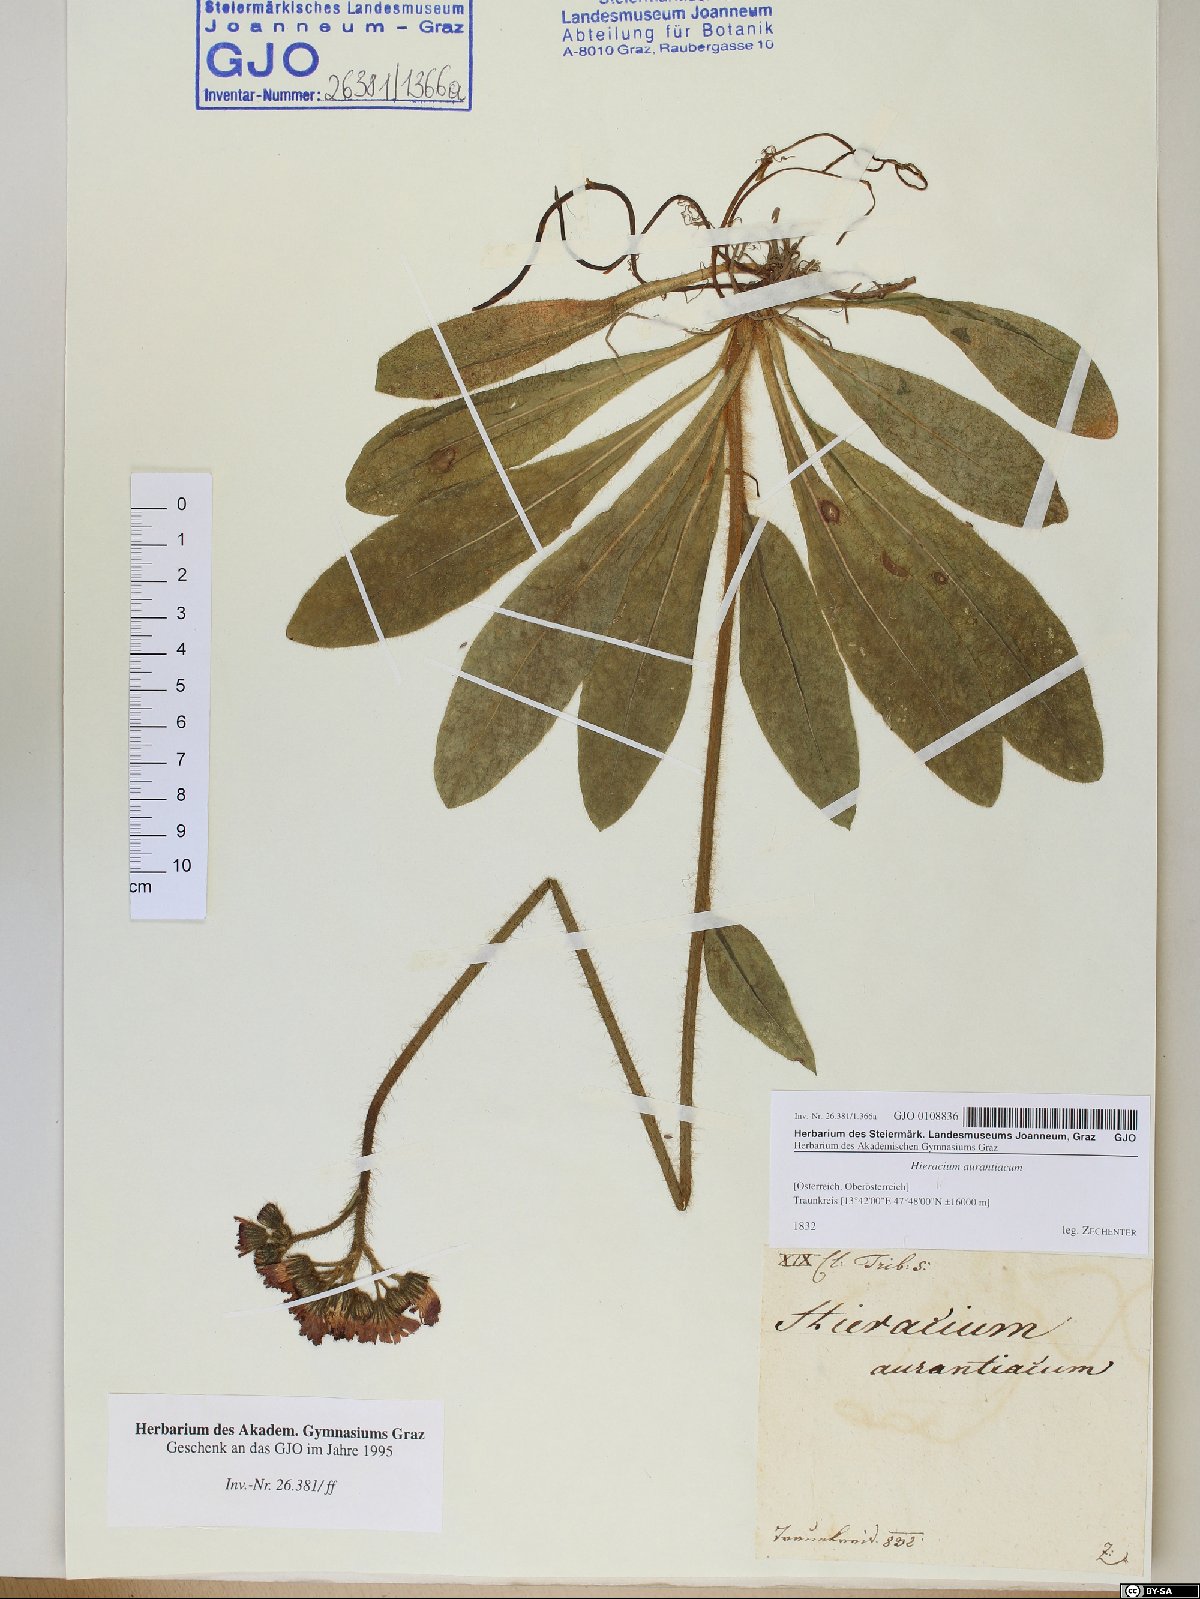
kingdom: Plantae
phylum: Tracheophyta
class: Magnoliopsida
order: Asterales
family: Asteraceae
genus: Pilosella
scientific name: Pilosella aurantiaca
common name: Fox-and-cubs
